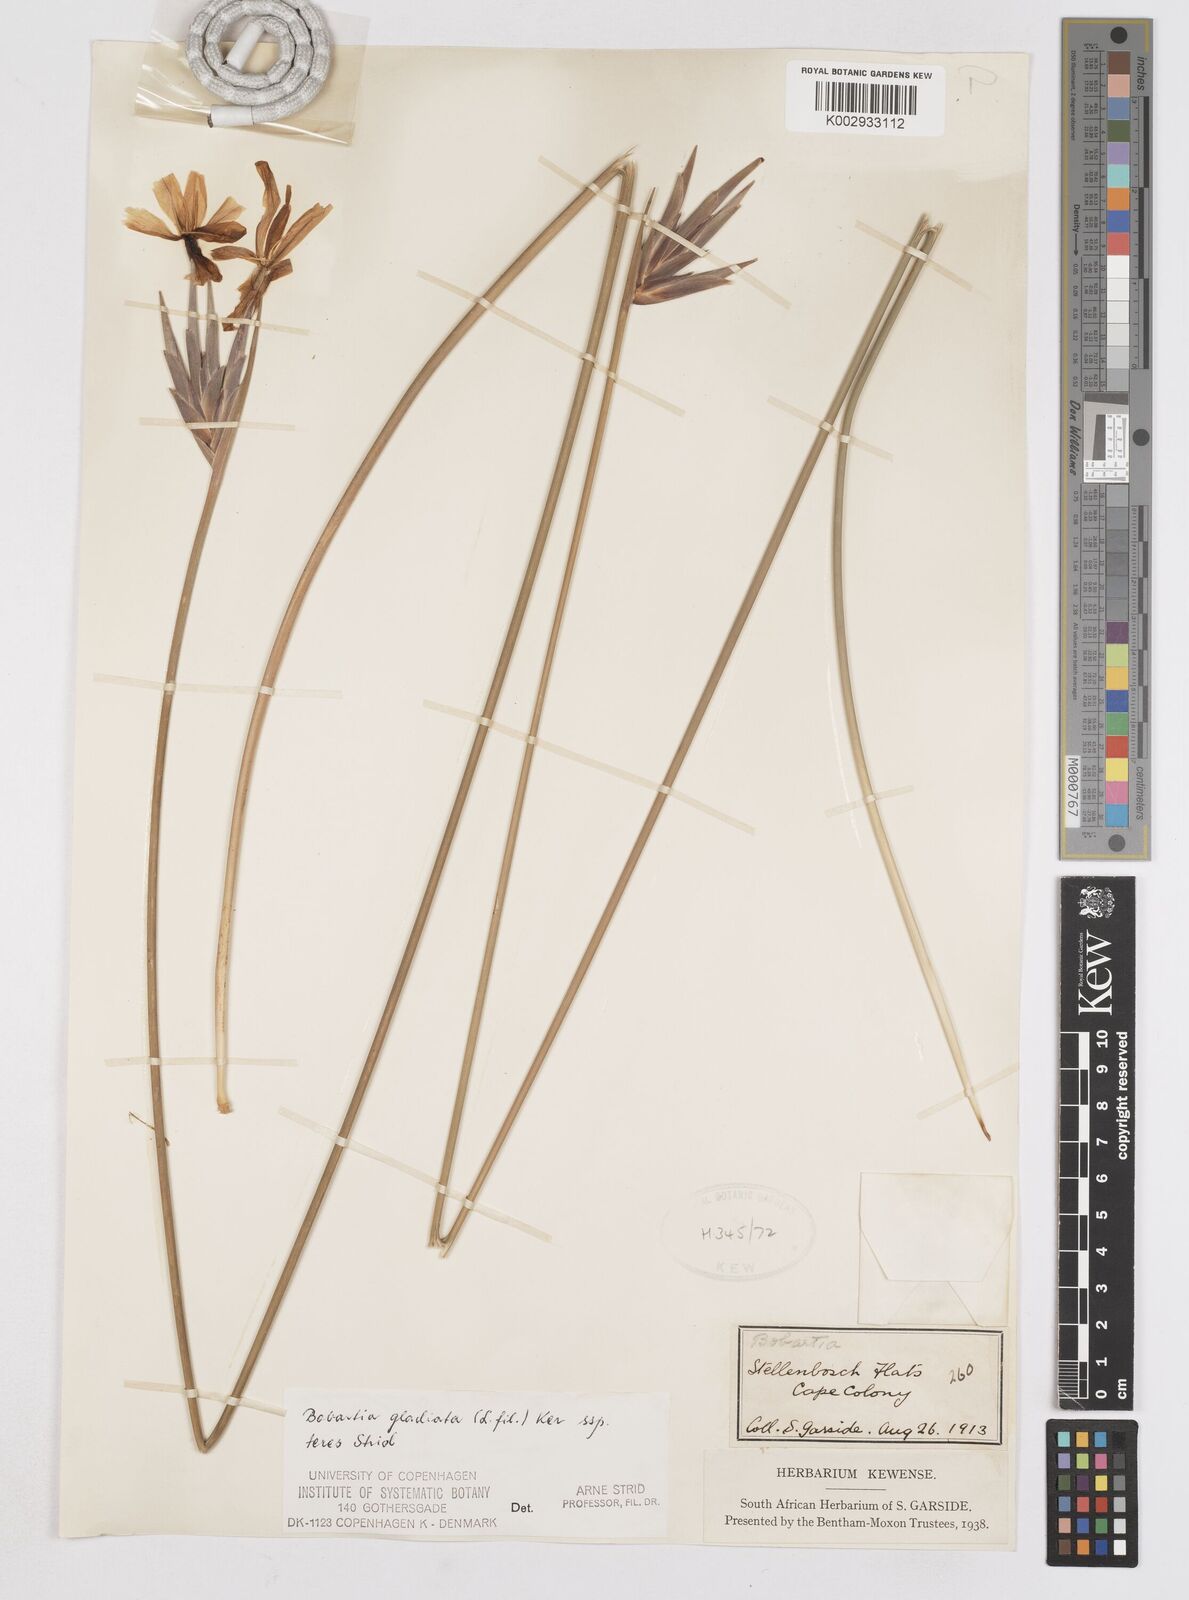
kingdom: Plantae
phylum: Tracheophyta
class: Liliopsida
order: Asparagales
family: Iridaceae
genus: Bobartia
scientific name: Bobartia gladiata
